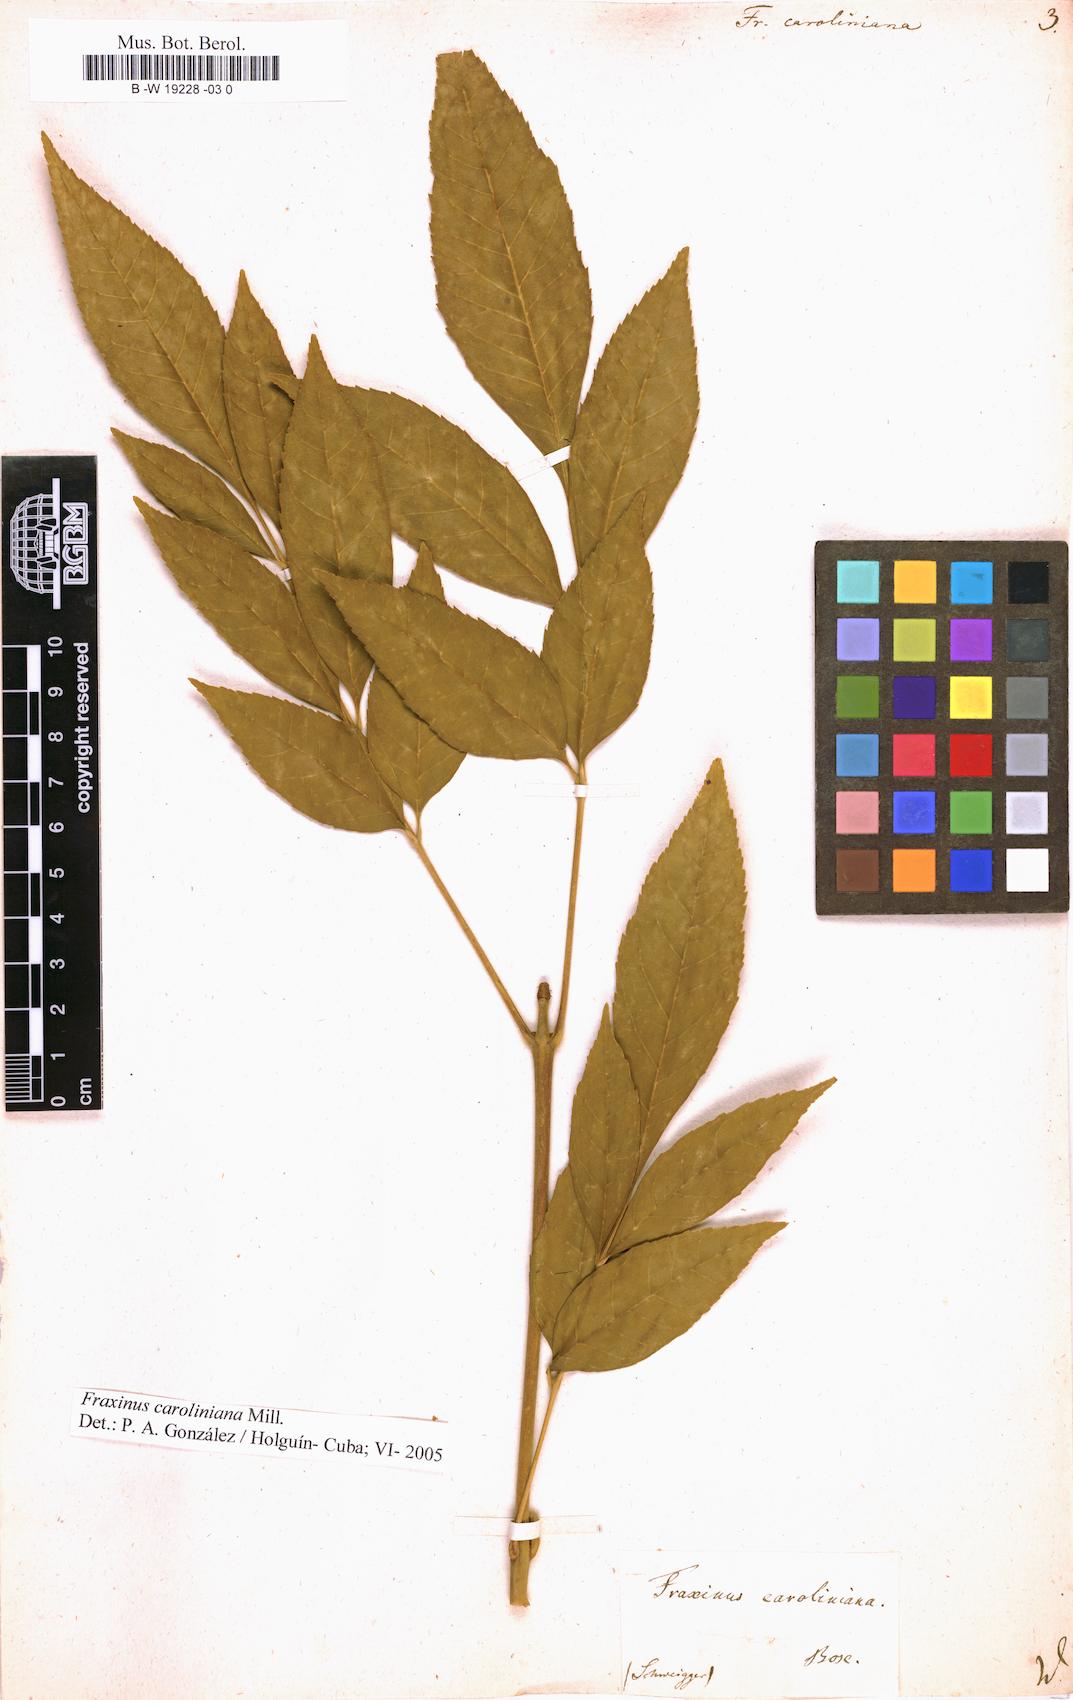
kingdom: Plantae
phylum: Tracheophyta
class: Magnoliopsida
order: Lamiales
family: Oleaceae
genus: Fraxinus
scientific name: Fraxinus caroliniana
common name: Carolina ash
